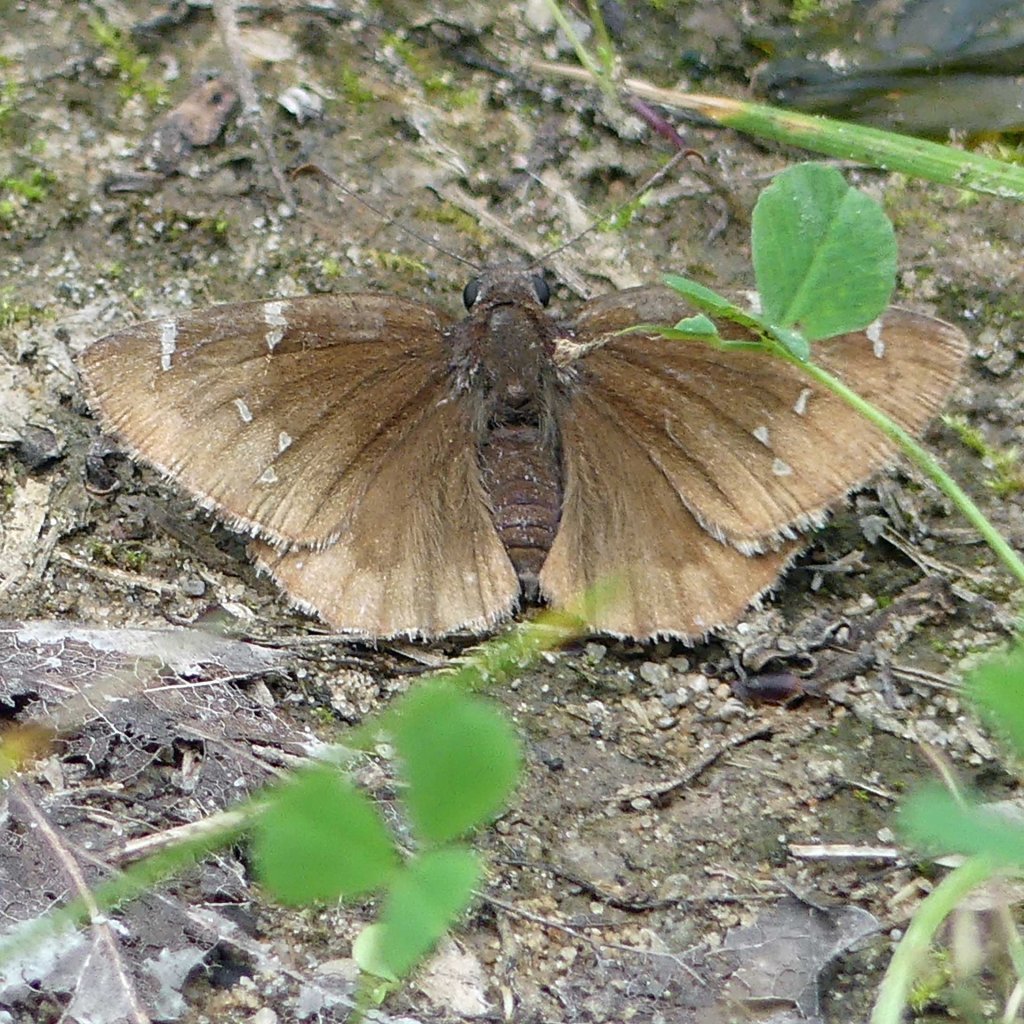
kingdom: Animalia
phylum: Arthropoda
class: Insecta
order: Lepidoptera
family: Hesperiidae
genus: Autochton
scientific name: Autochton
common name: Northern Cloudywing
